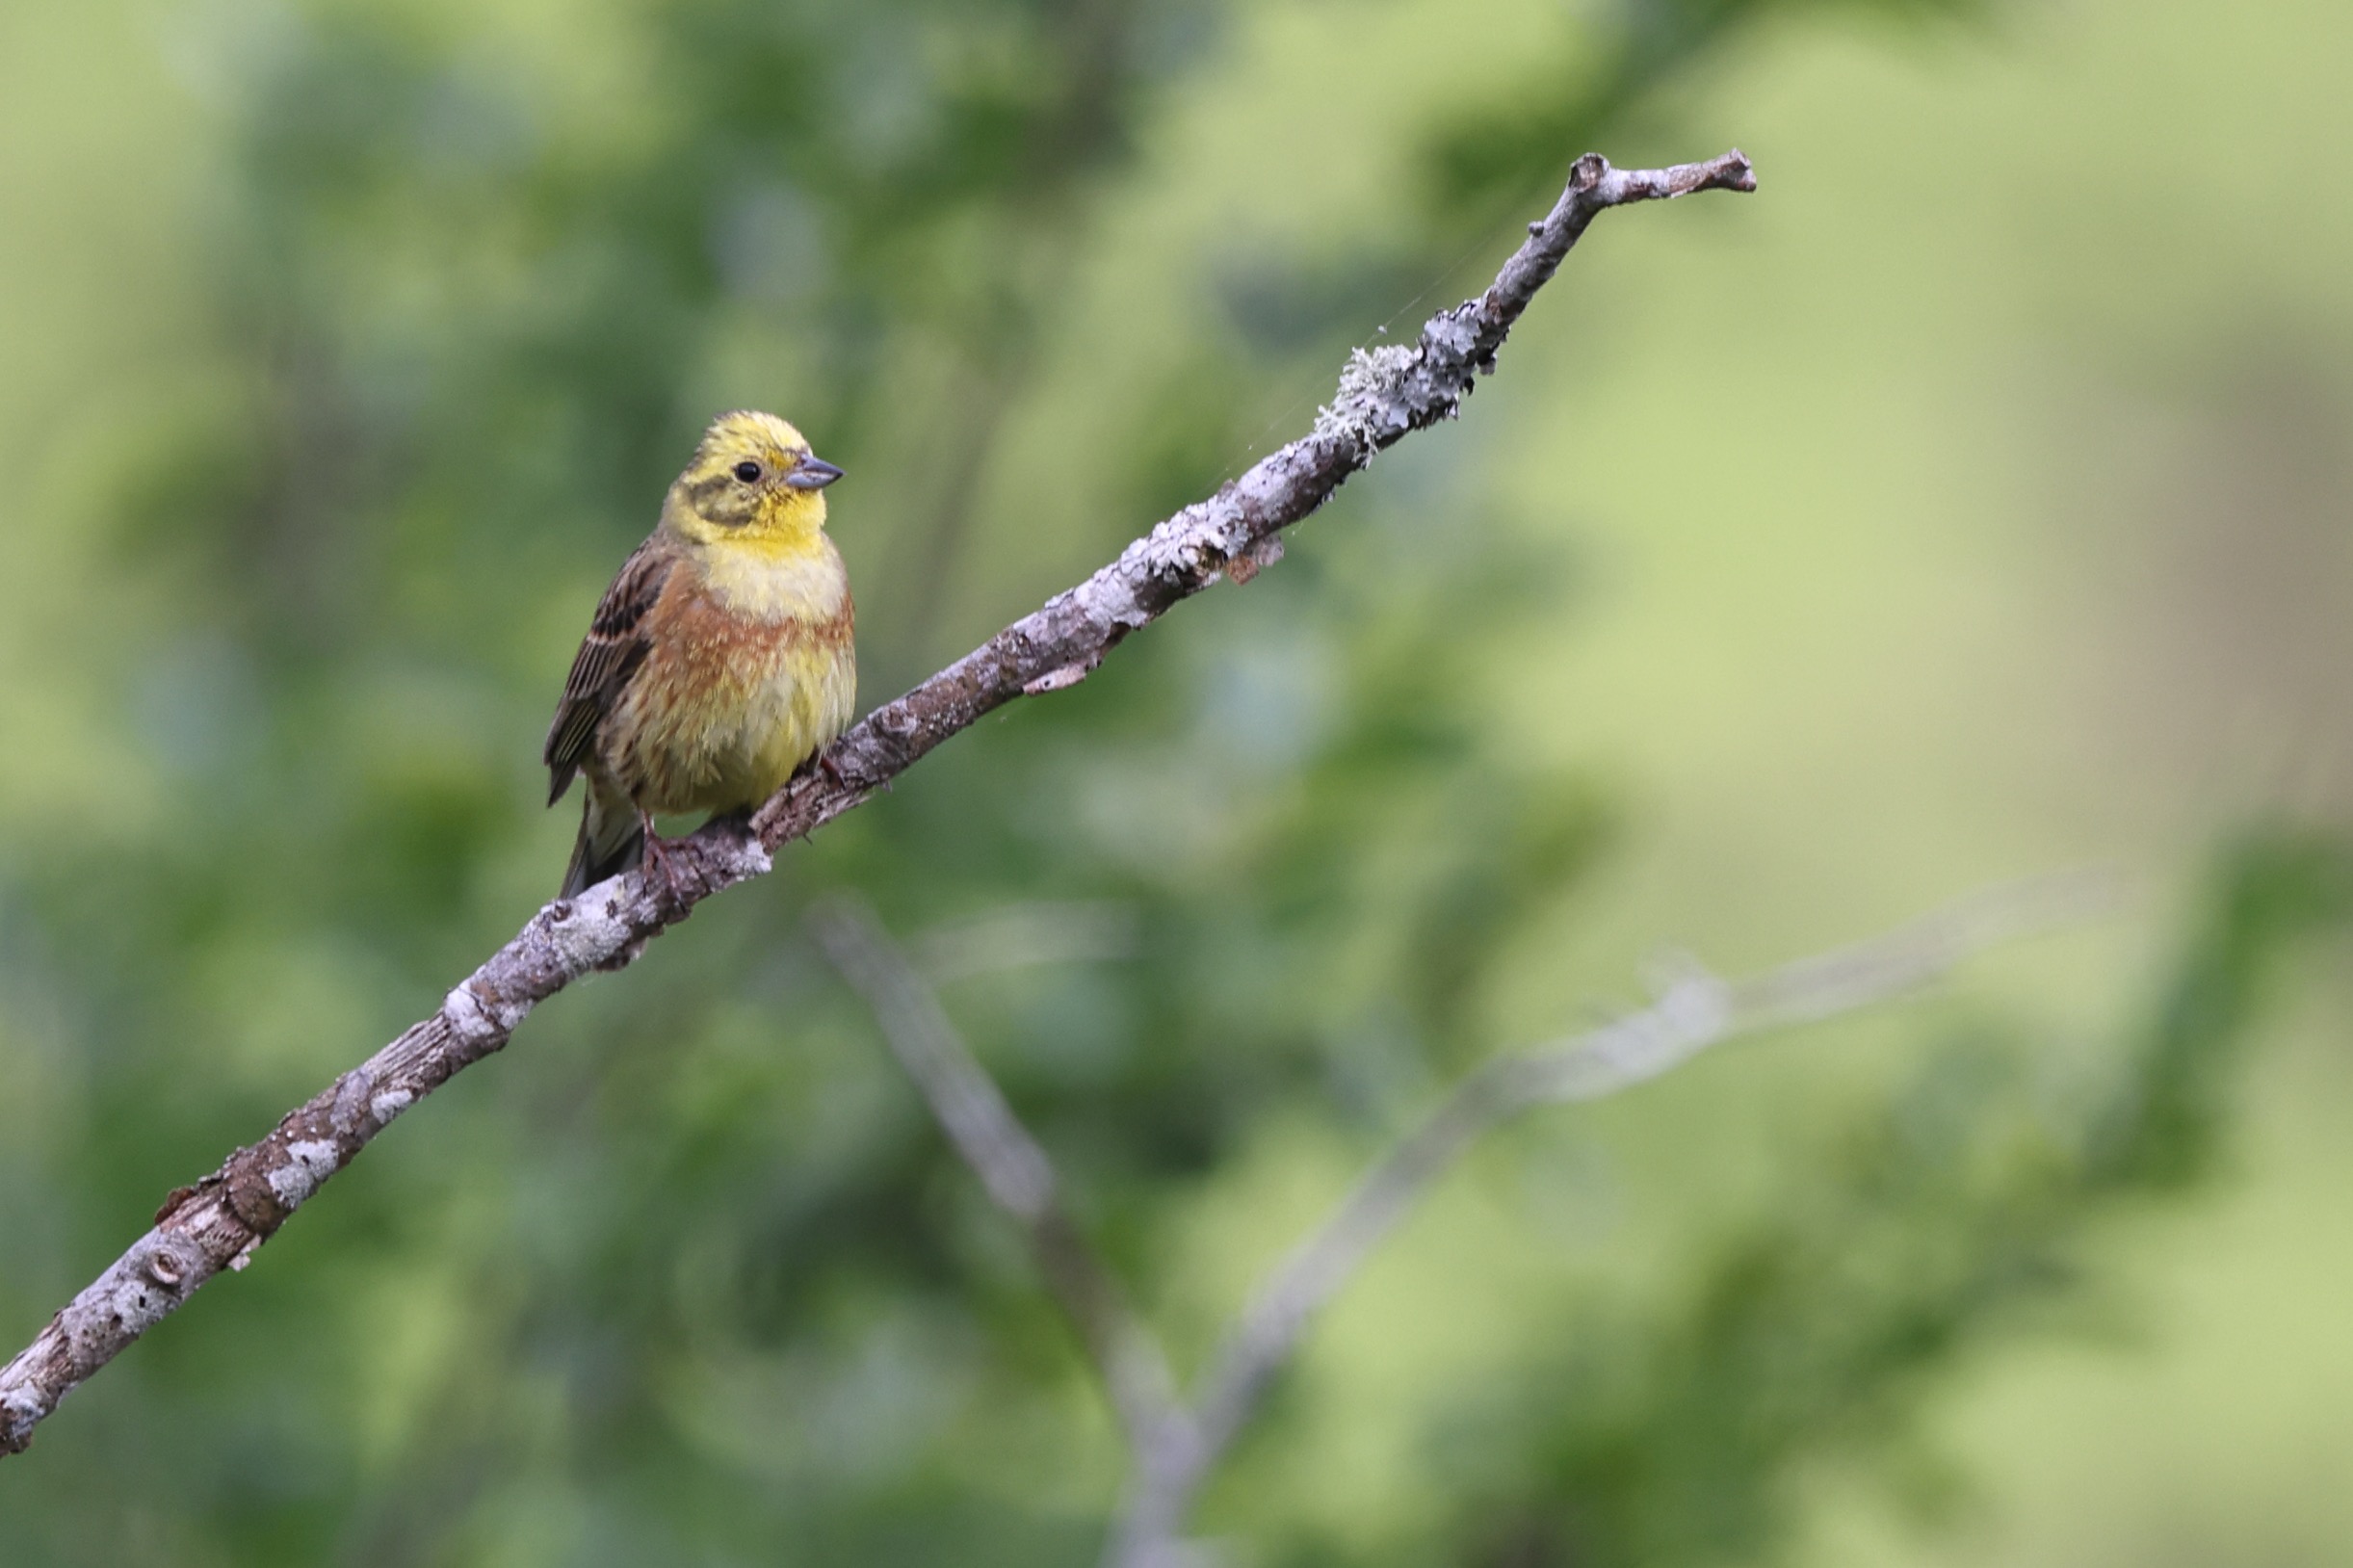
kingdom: Animalia
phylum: Chordata
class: Aves
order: Passeriformes
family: Emberizidae
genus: Emberiza
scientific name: Emberiza citrinella
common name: Gulspurv
